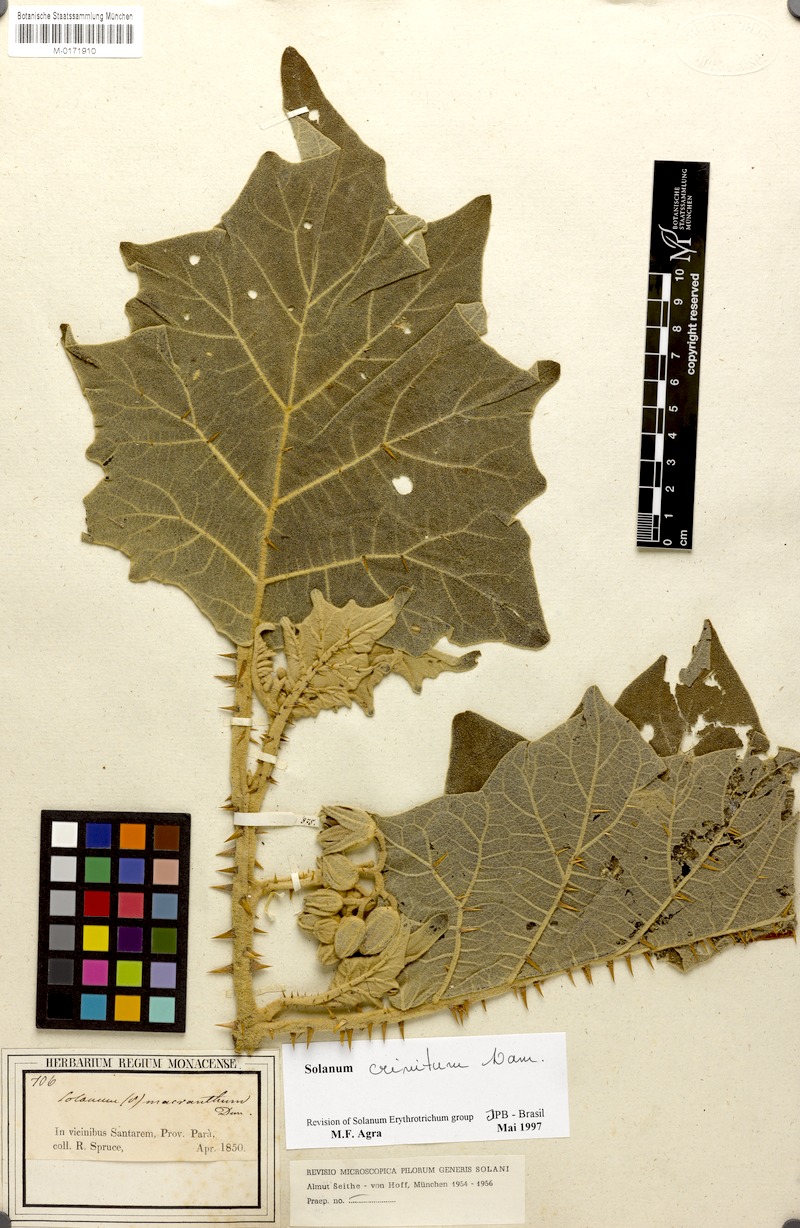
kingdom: Plantae
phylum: Tracheophyta
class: Magnoliopsida
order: Solanales
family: Solanaceae
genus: Solanum
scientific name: Solanum crinitum
